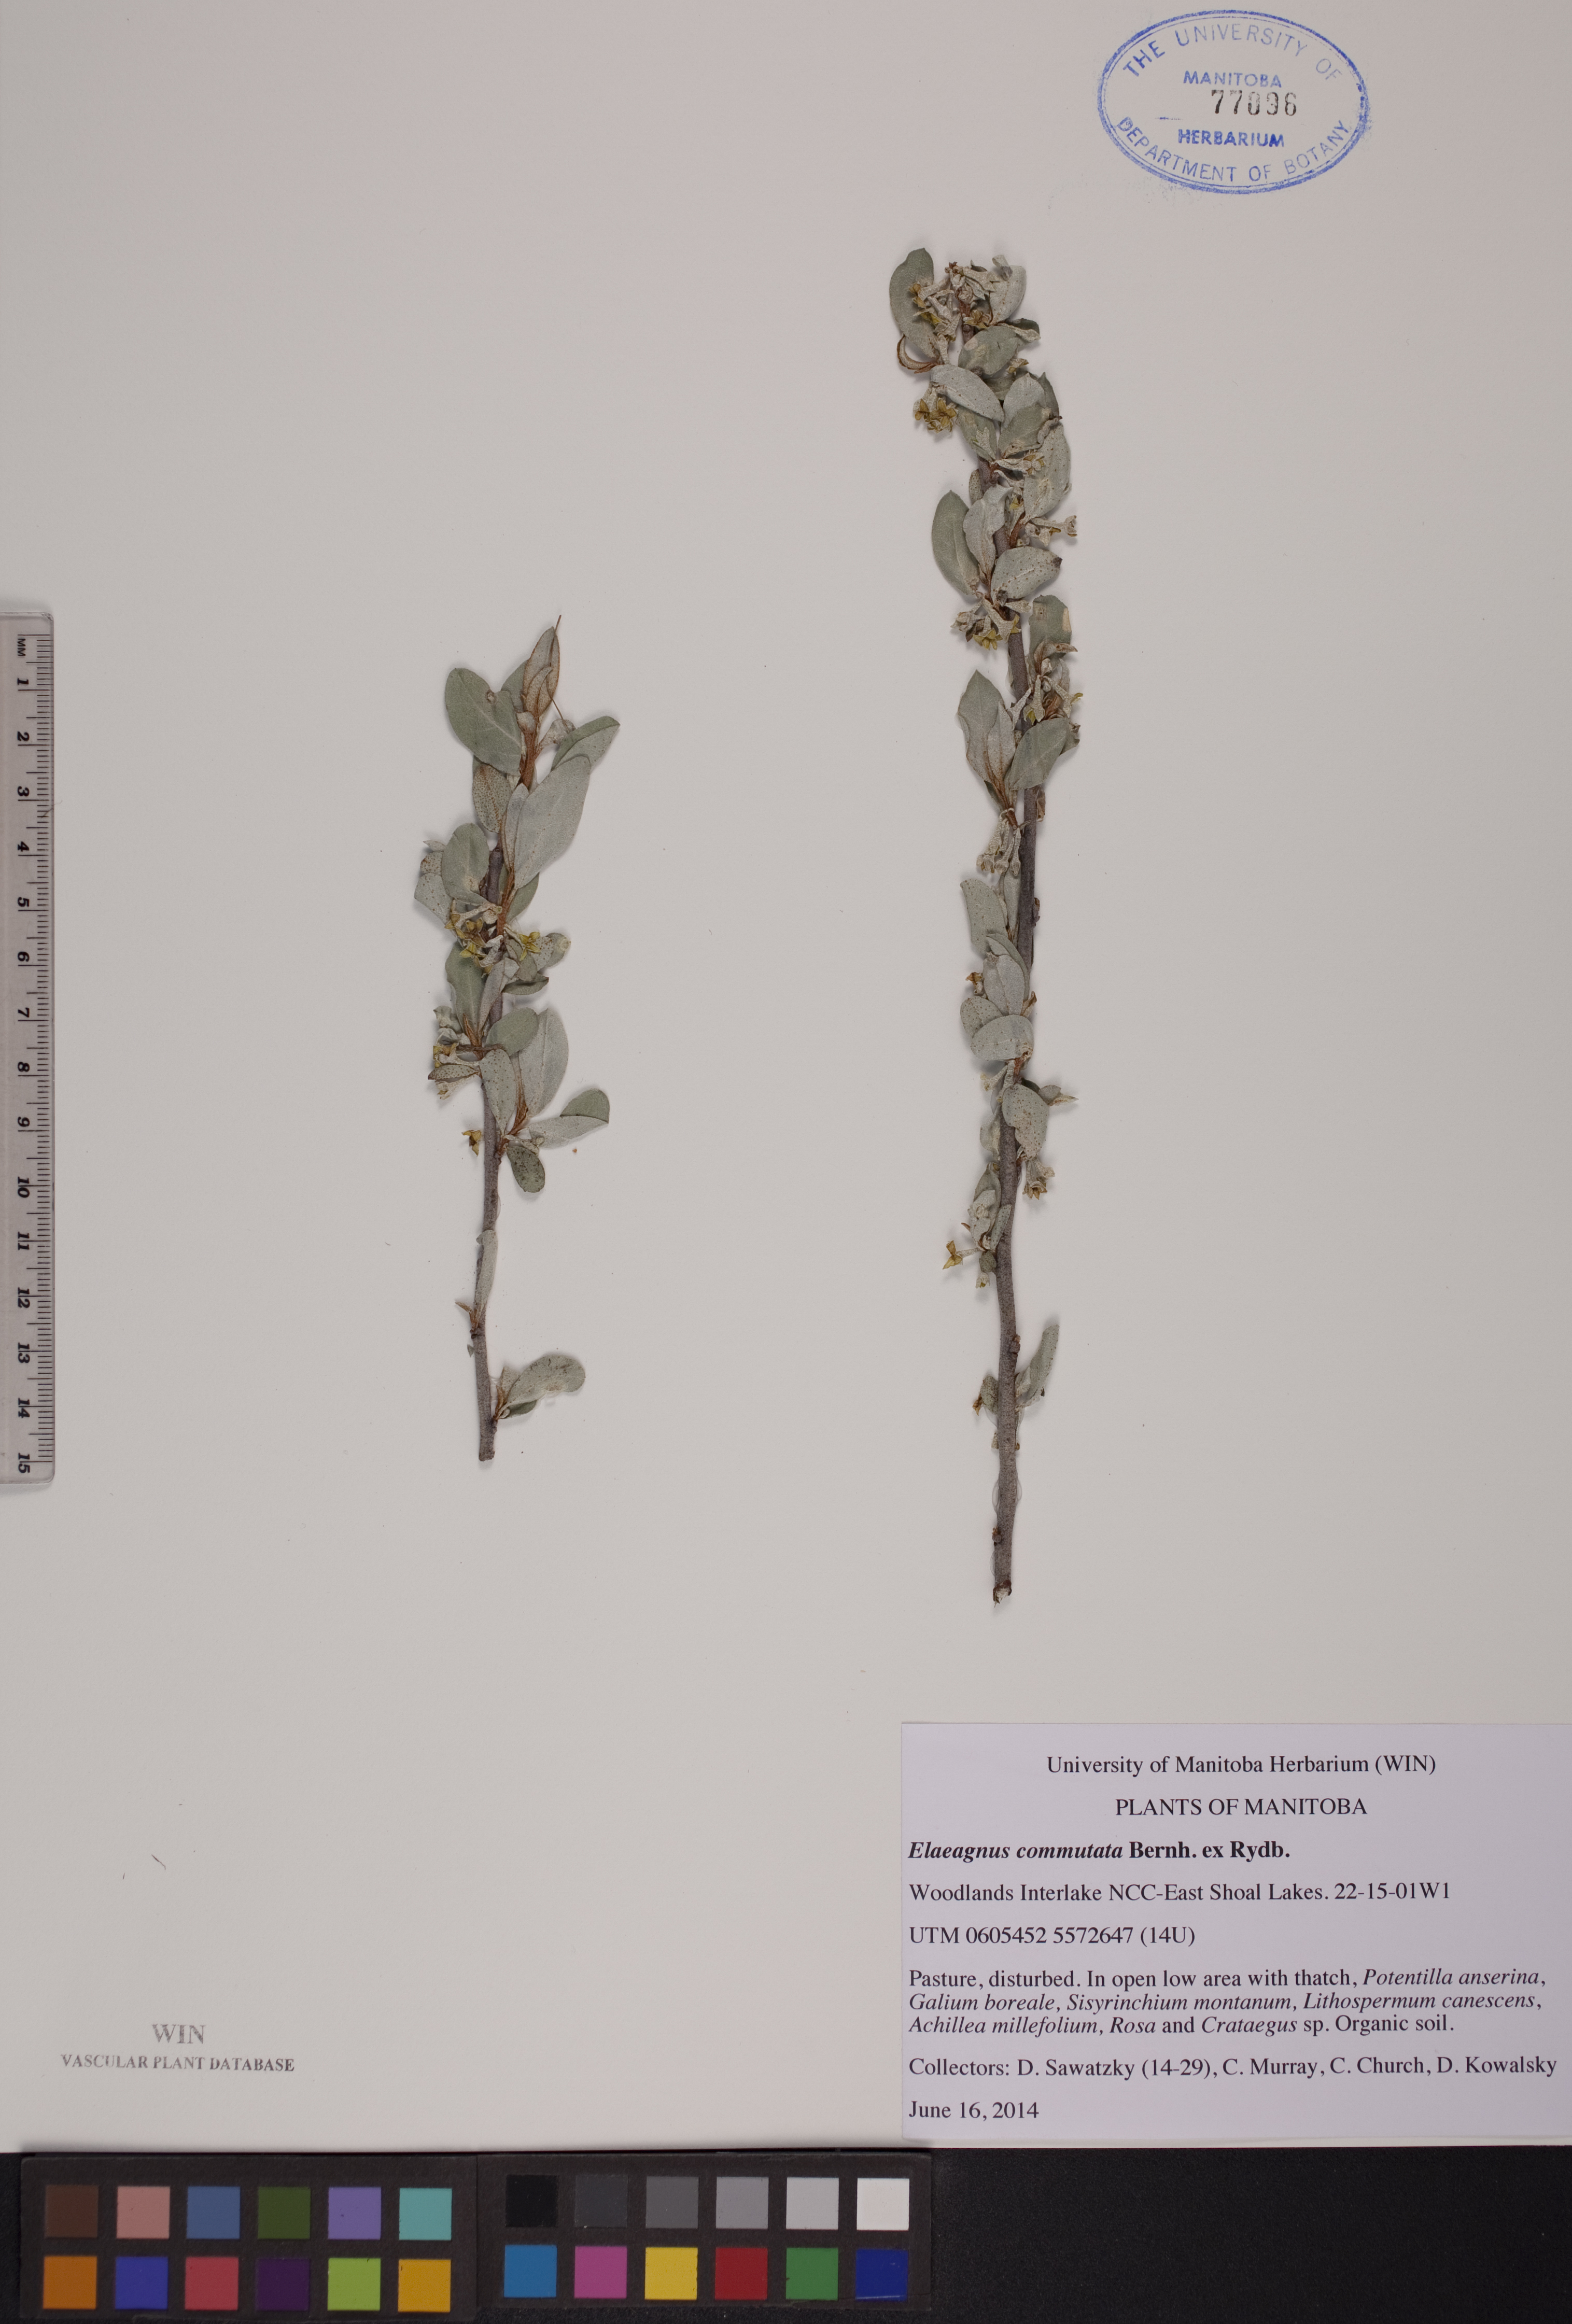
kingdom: Plantae
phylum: Tracheophyta
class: Magnoliopsida
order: Rosales
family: Elaeagnaceae
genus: Elaeagnus
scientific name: Elaeagnus commutata
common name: Silverberry
